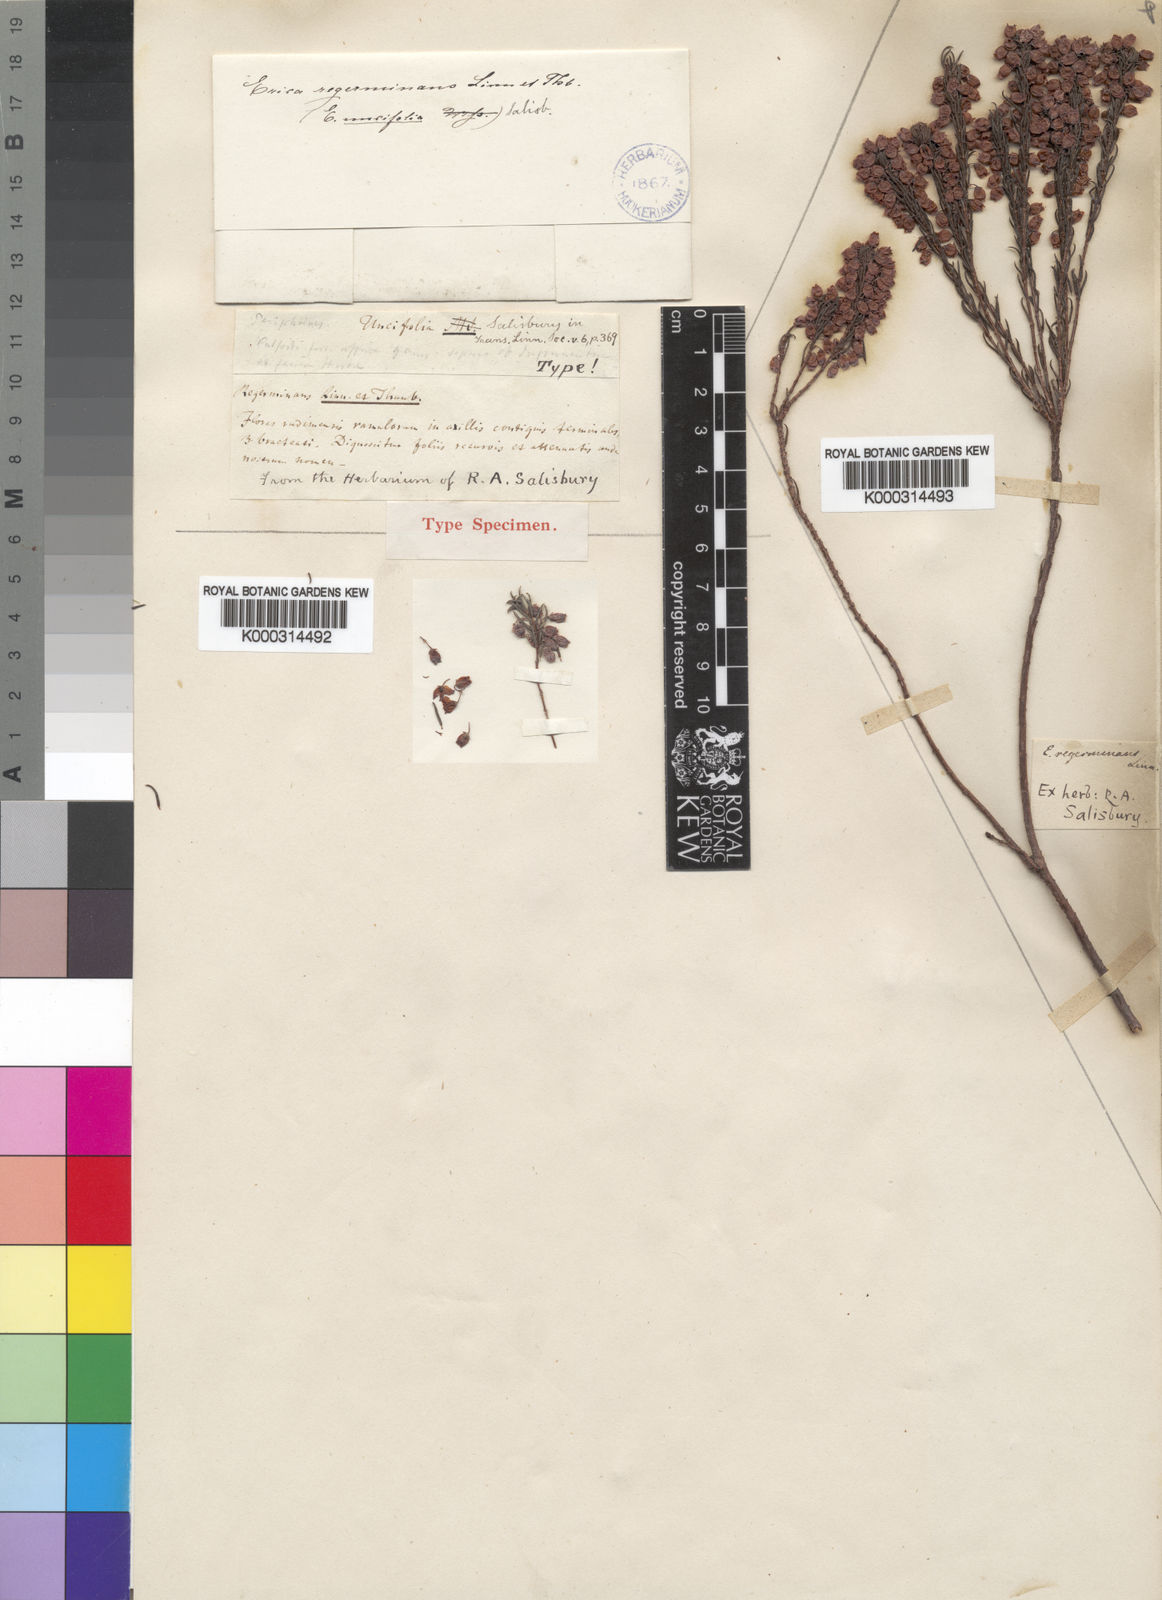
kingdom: Plantae
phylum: Tracheophyta
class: Magnoliopsida
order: Ericales
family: Ericaceae
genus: Erica
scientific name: Erica regerminans
